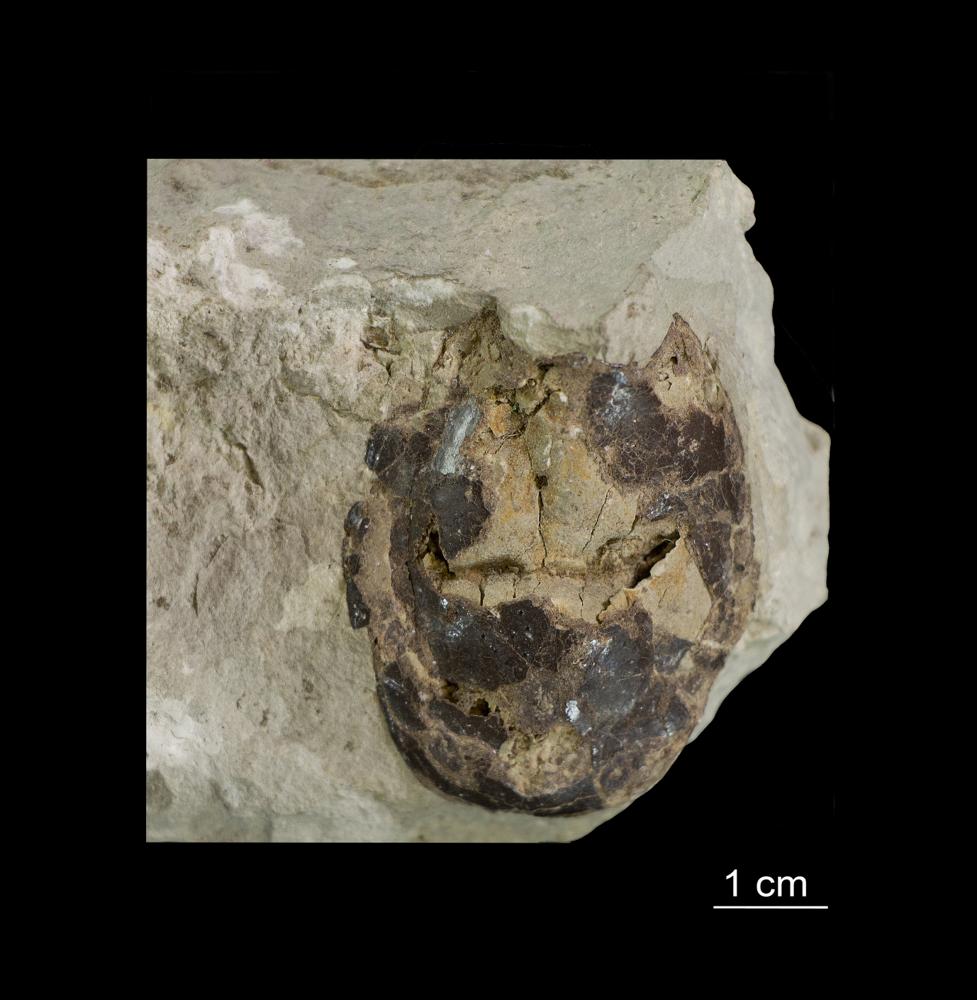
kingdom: Animalia
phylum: Chordata
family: Tremataspididae
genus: Tremataspis
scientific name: Tremataspis schmidti
